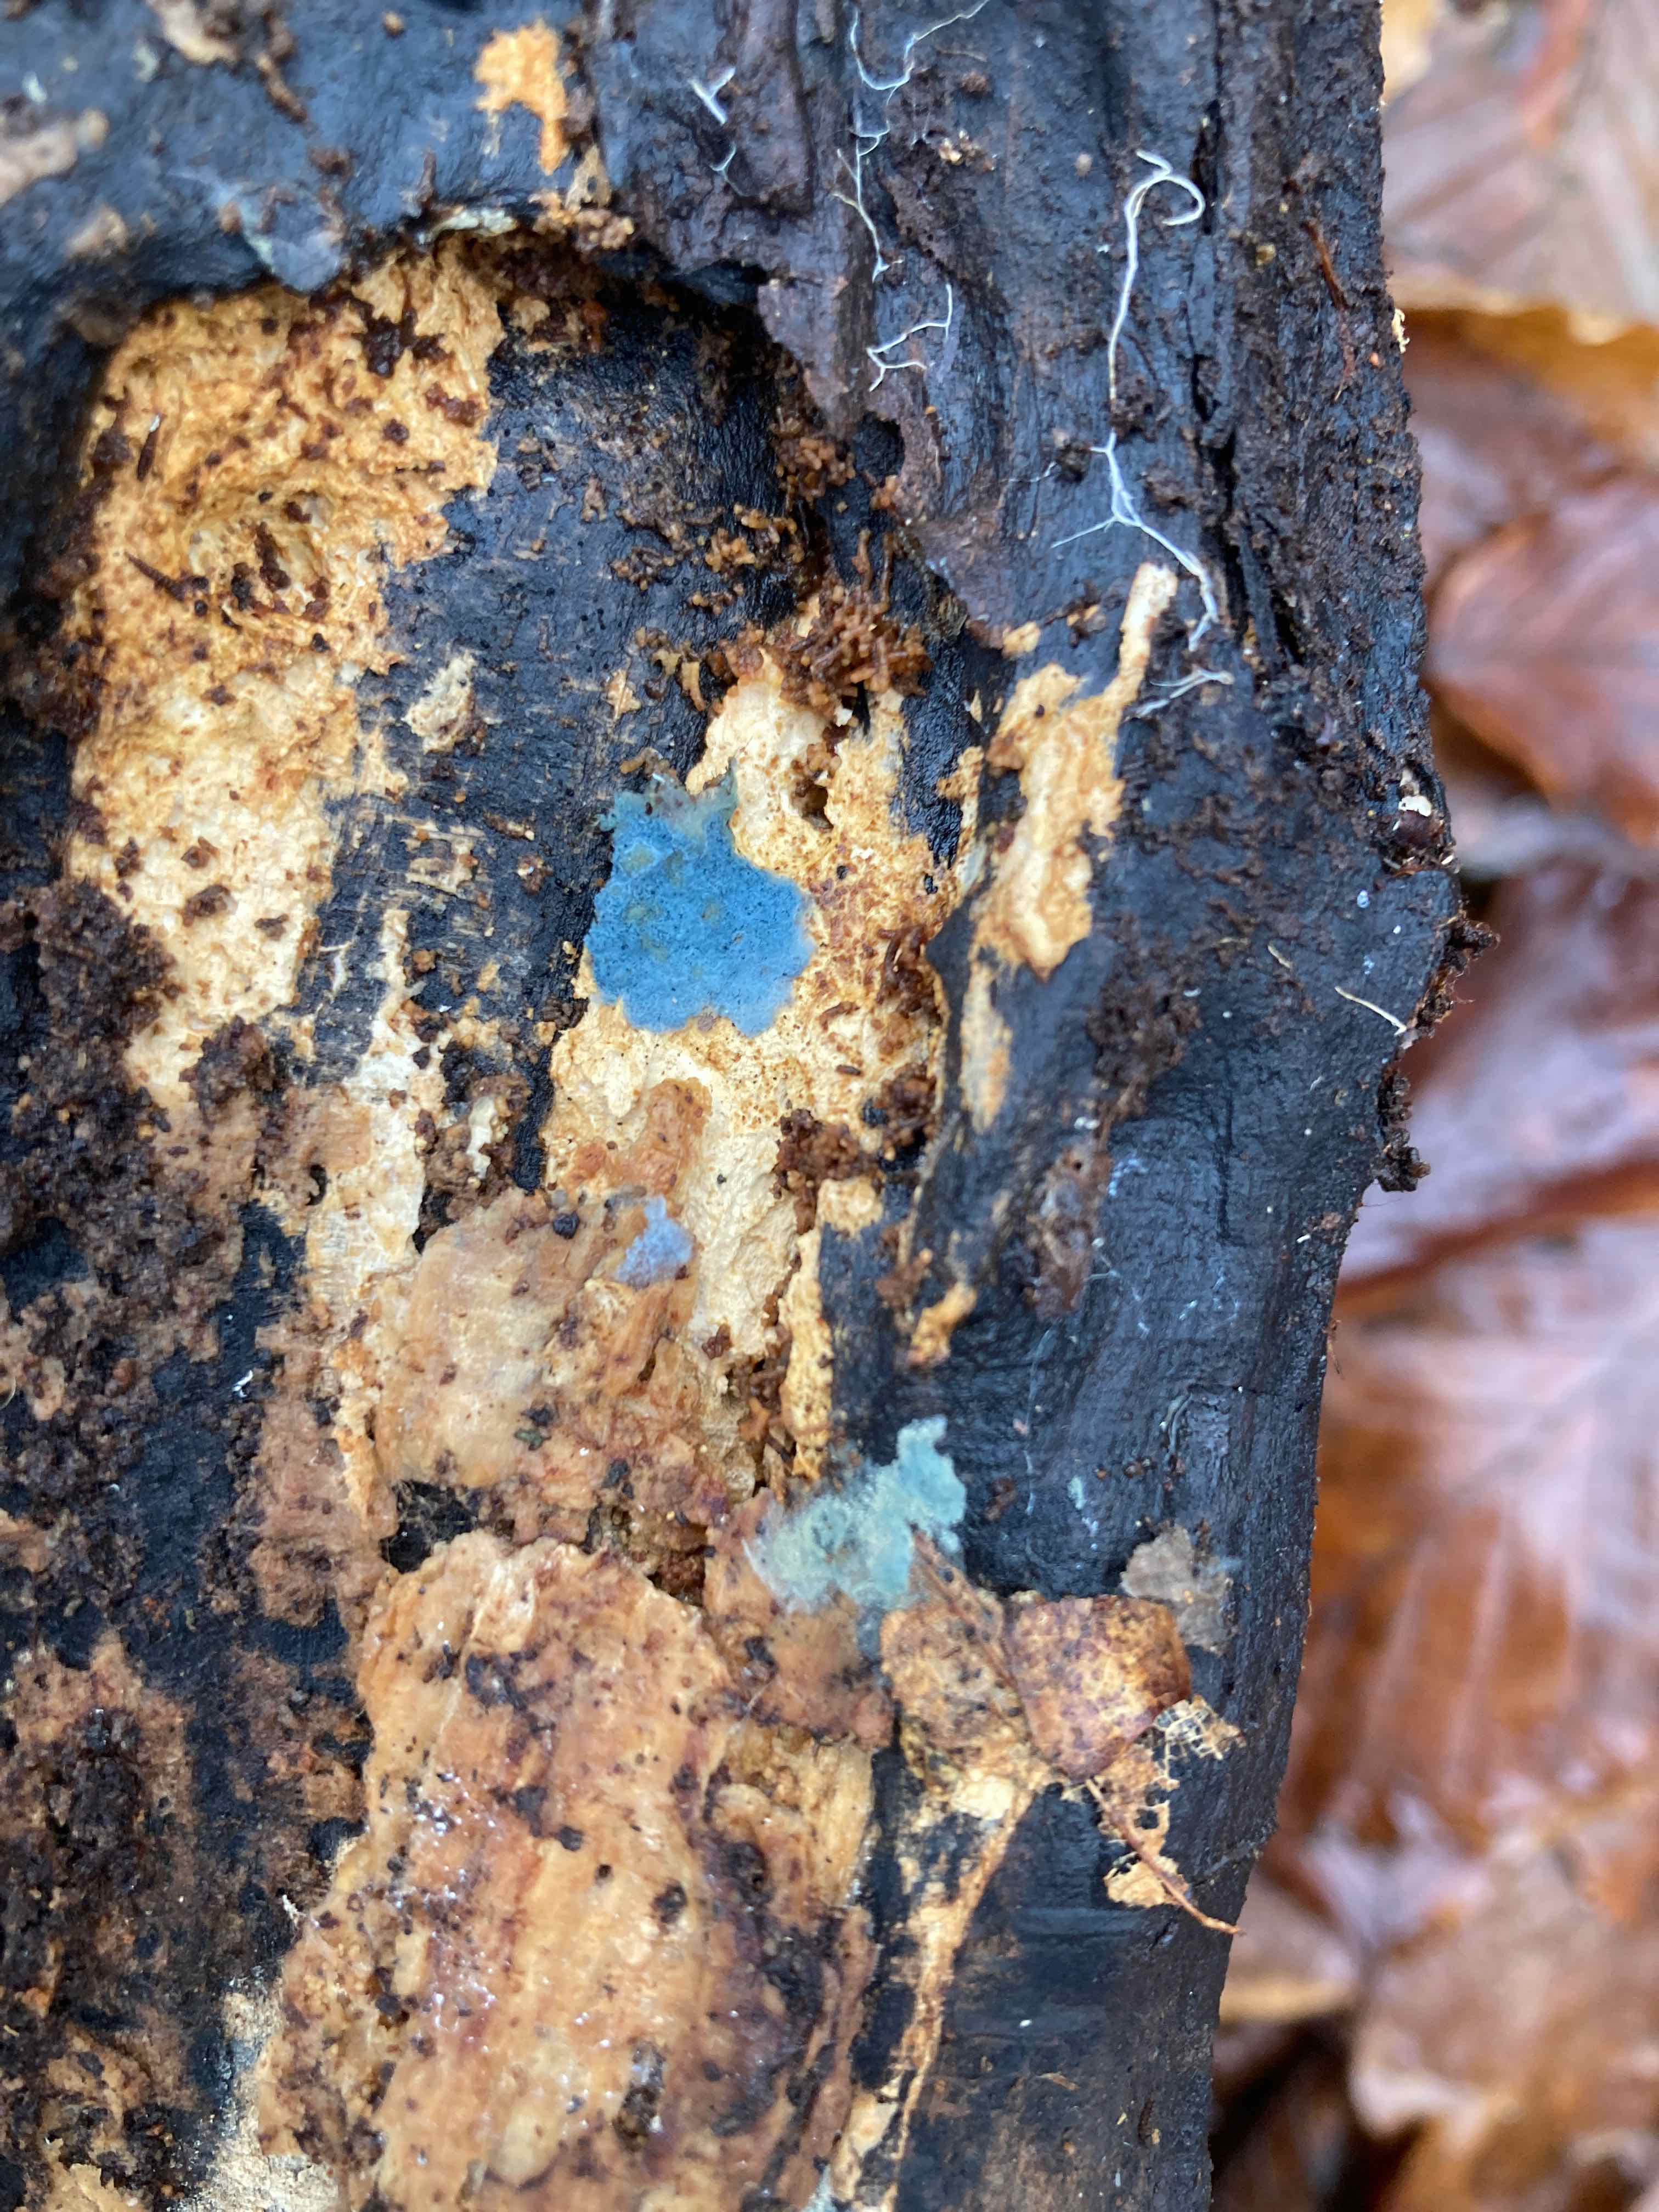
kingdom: Fungi
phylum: Basidiomycota
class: Agaricomycetes
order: Atheliales
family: Atheliaceae
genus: Byssocorticium
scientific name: Byssocorticium atrovirens
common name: blå førnehinde
